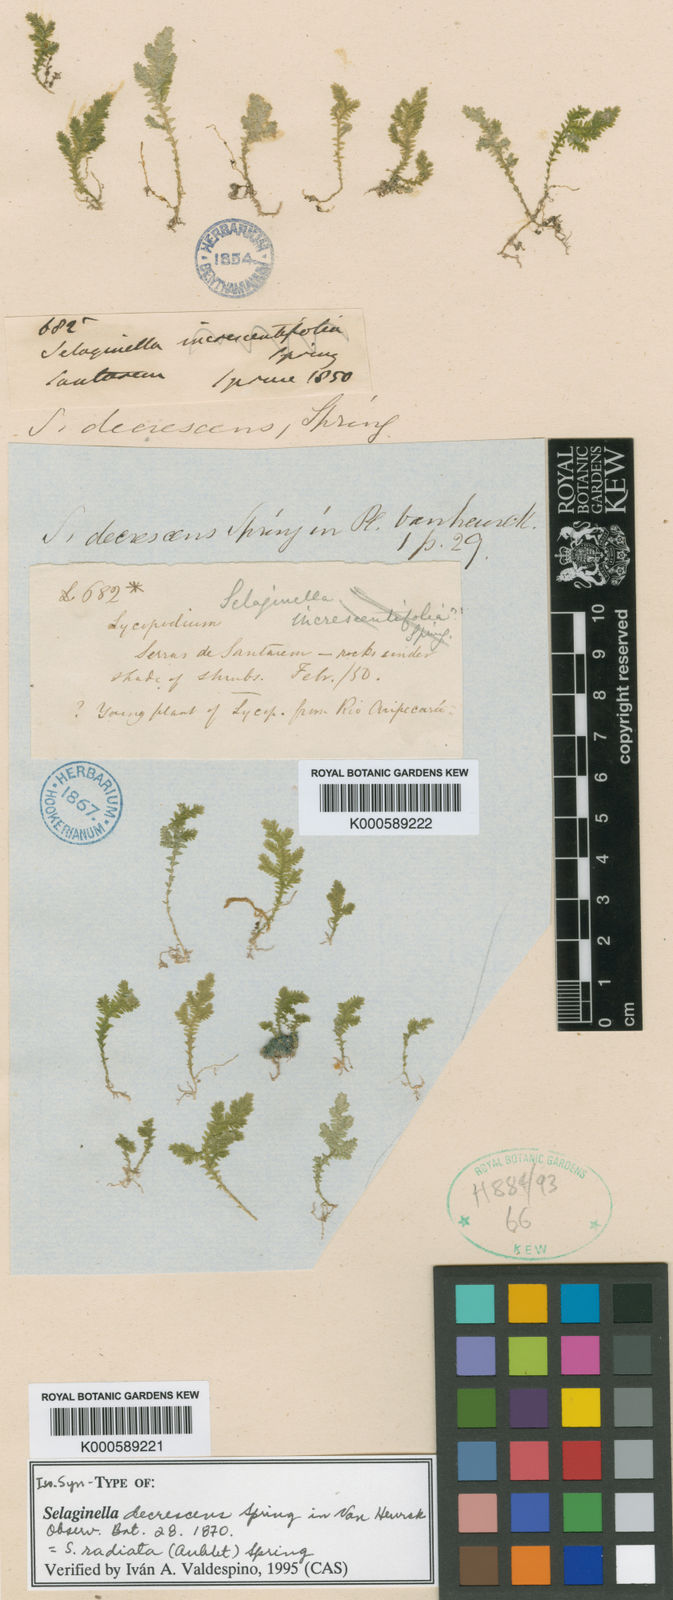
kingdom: Plantae
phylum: Tracheophyta
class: Lycopodiopsida
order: Selaginellales
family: Selaginellaceae
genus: Selaginella
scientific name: Selaginella radiata
